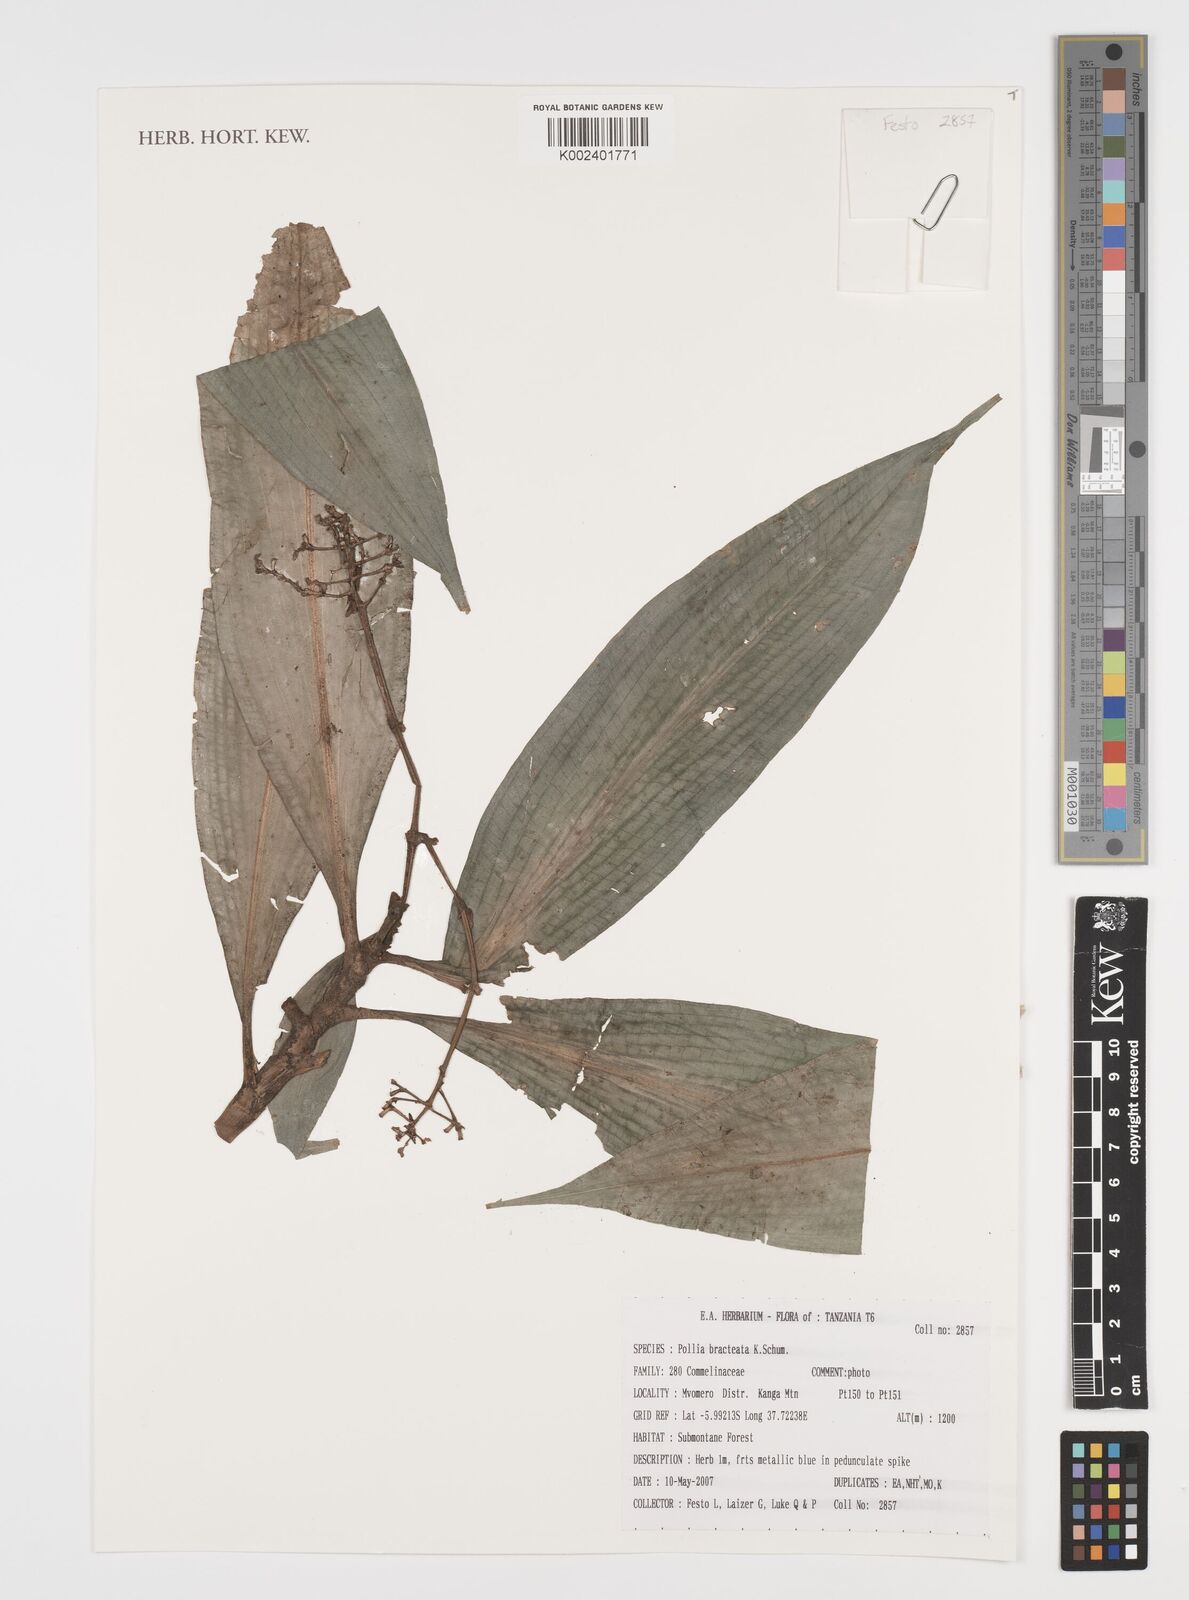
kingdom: Plantae
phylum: Tracheophyta
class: Liliopsida
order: Commelinales
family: Commelinaceae
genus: Pollia
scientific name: Pollia bracteata
